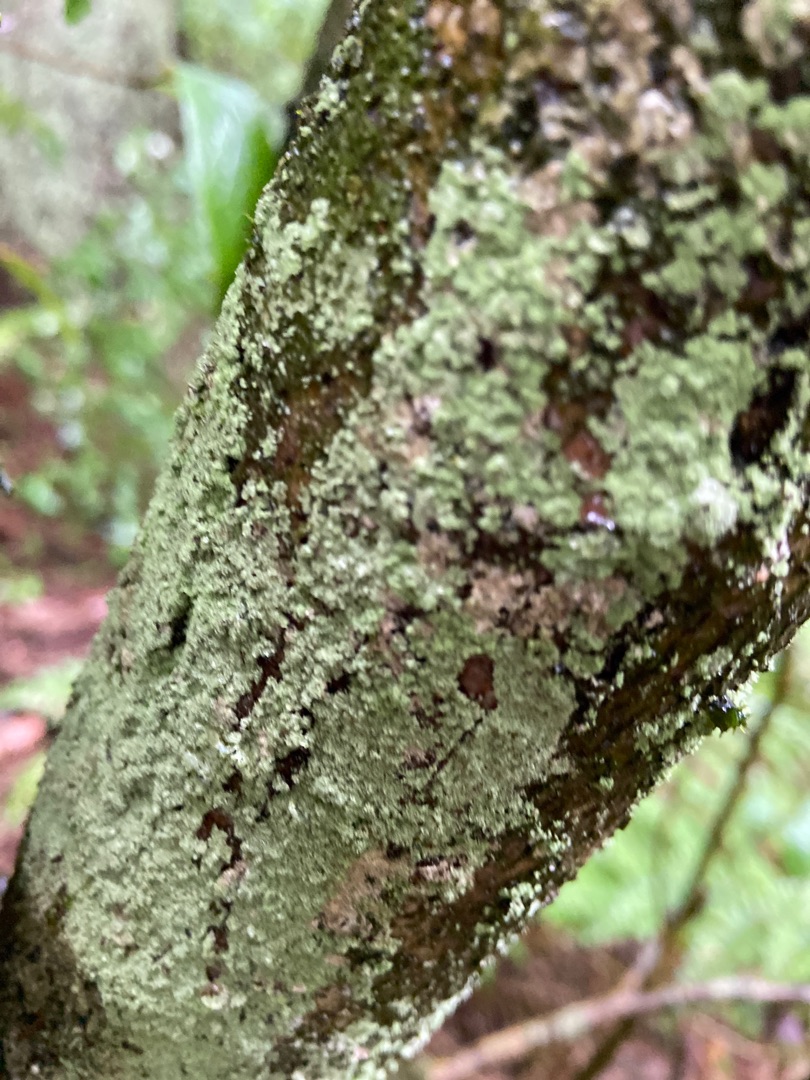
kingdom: Fungi
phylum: Ascomycota
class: Lecanoromycetes
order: Lecanorales
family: Stereocaulaceae
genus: Lepraria
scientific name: Lepraria
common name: Støvlav
